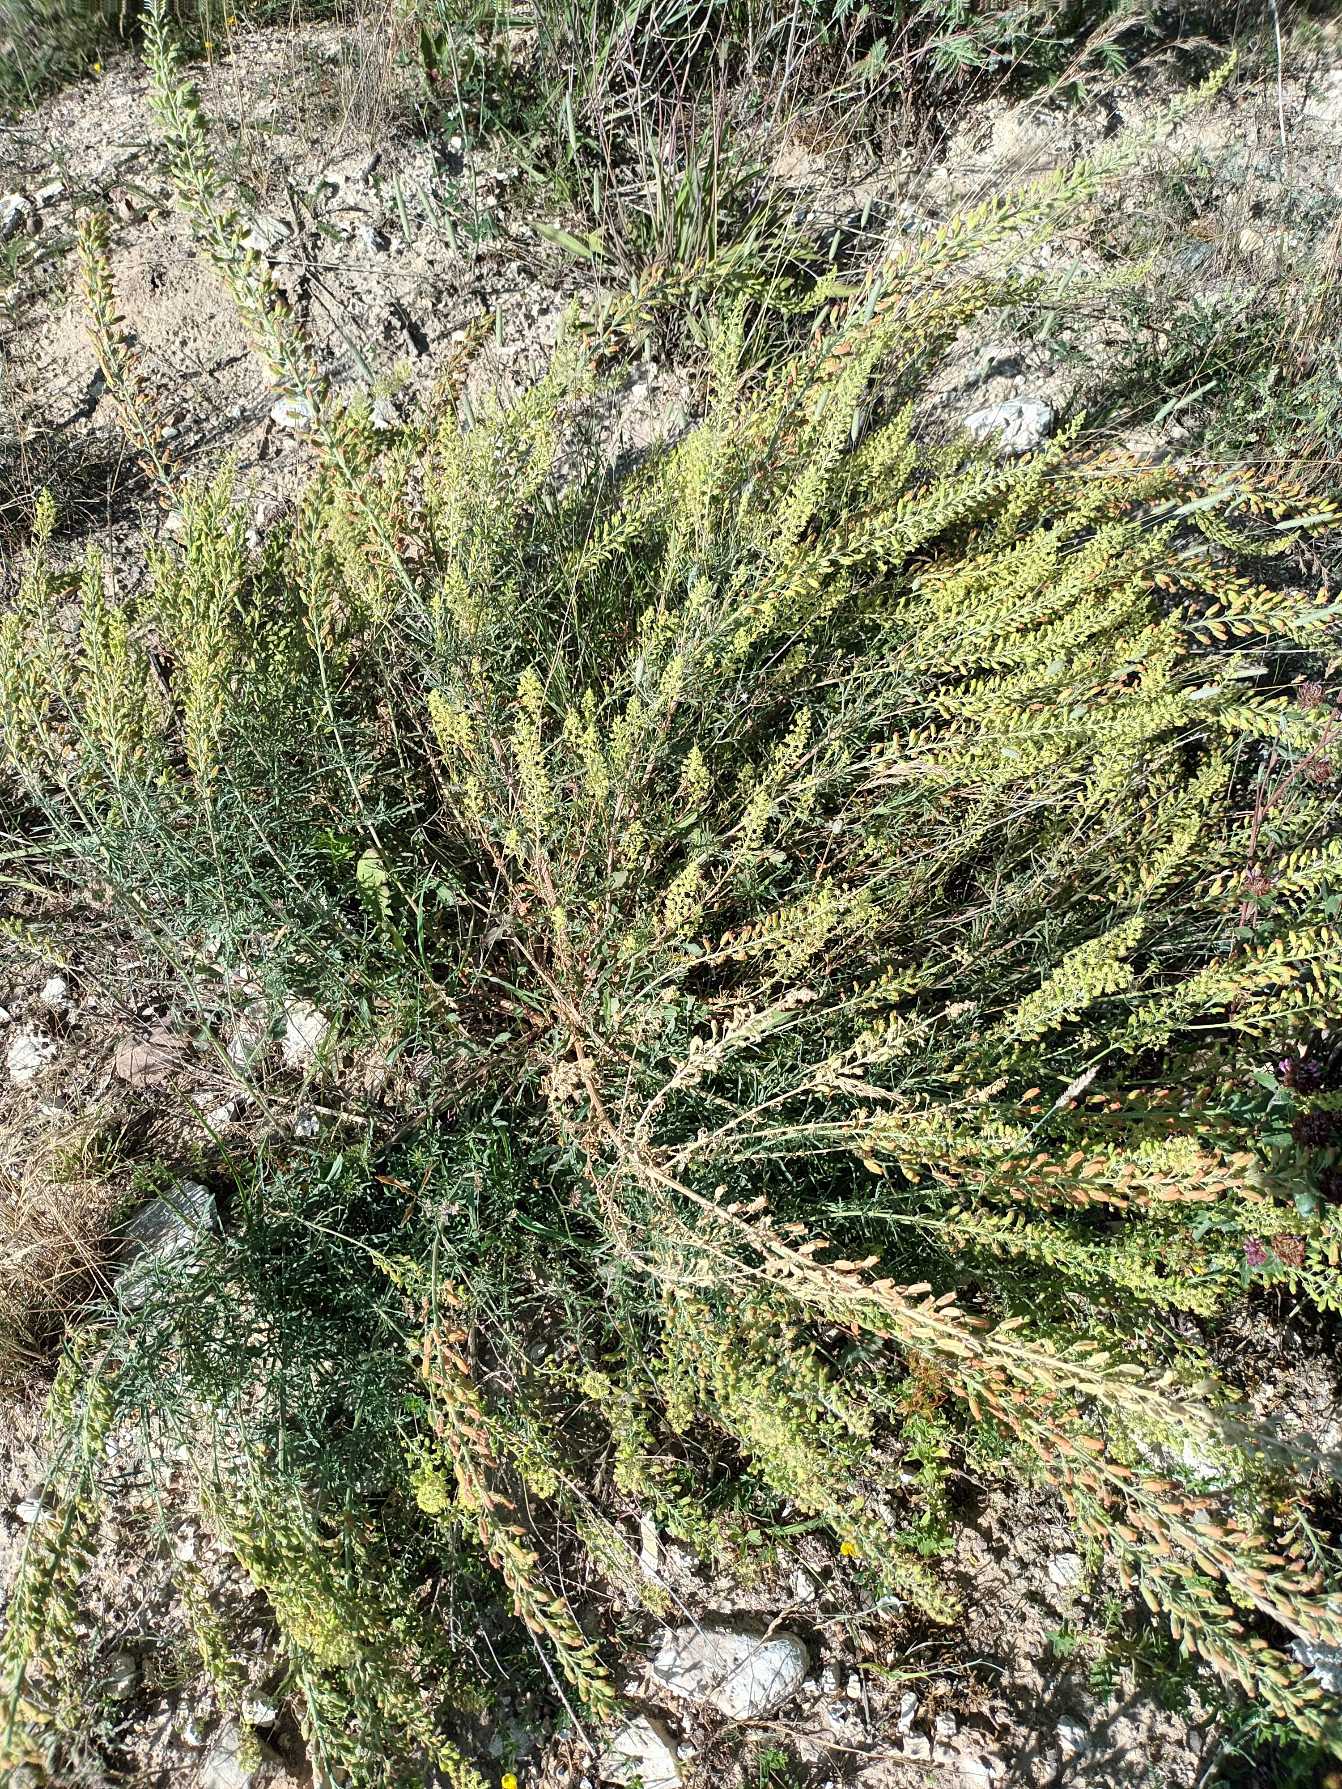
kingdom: Plantae
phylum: Tracheophyta
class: Magnoliopsida
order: Brassicales
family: Resedaceae
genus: Reseda
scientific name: Reseda lutea
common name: Gul reseda
